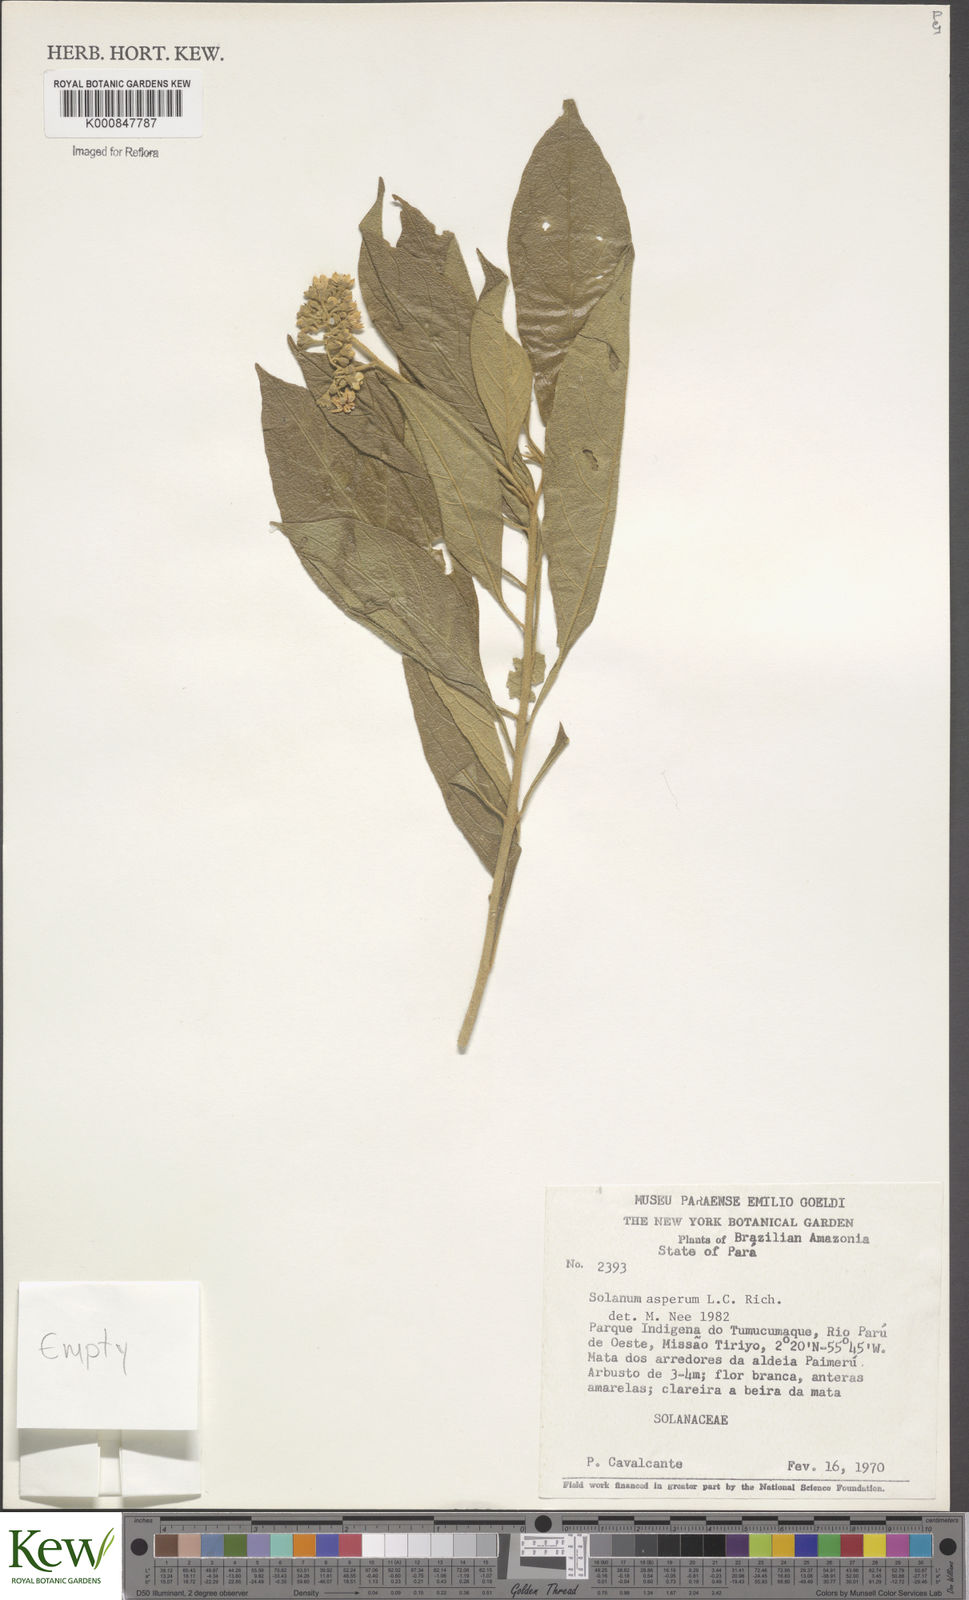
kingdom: Plantae
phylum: Tracheophyta
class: Magnoliopsida
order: Solanales
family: Solanaceae
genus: Solanum
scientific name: Solanum asperum
